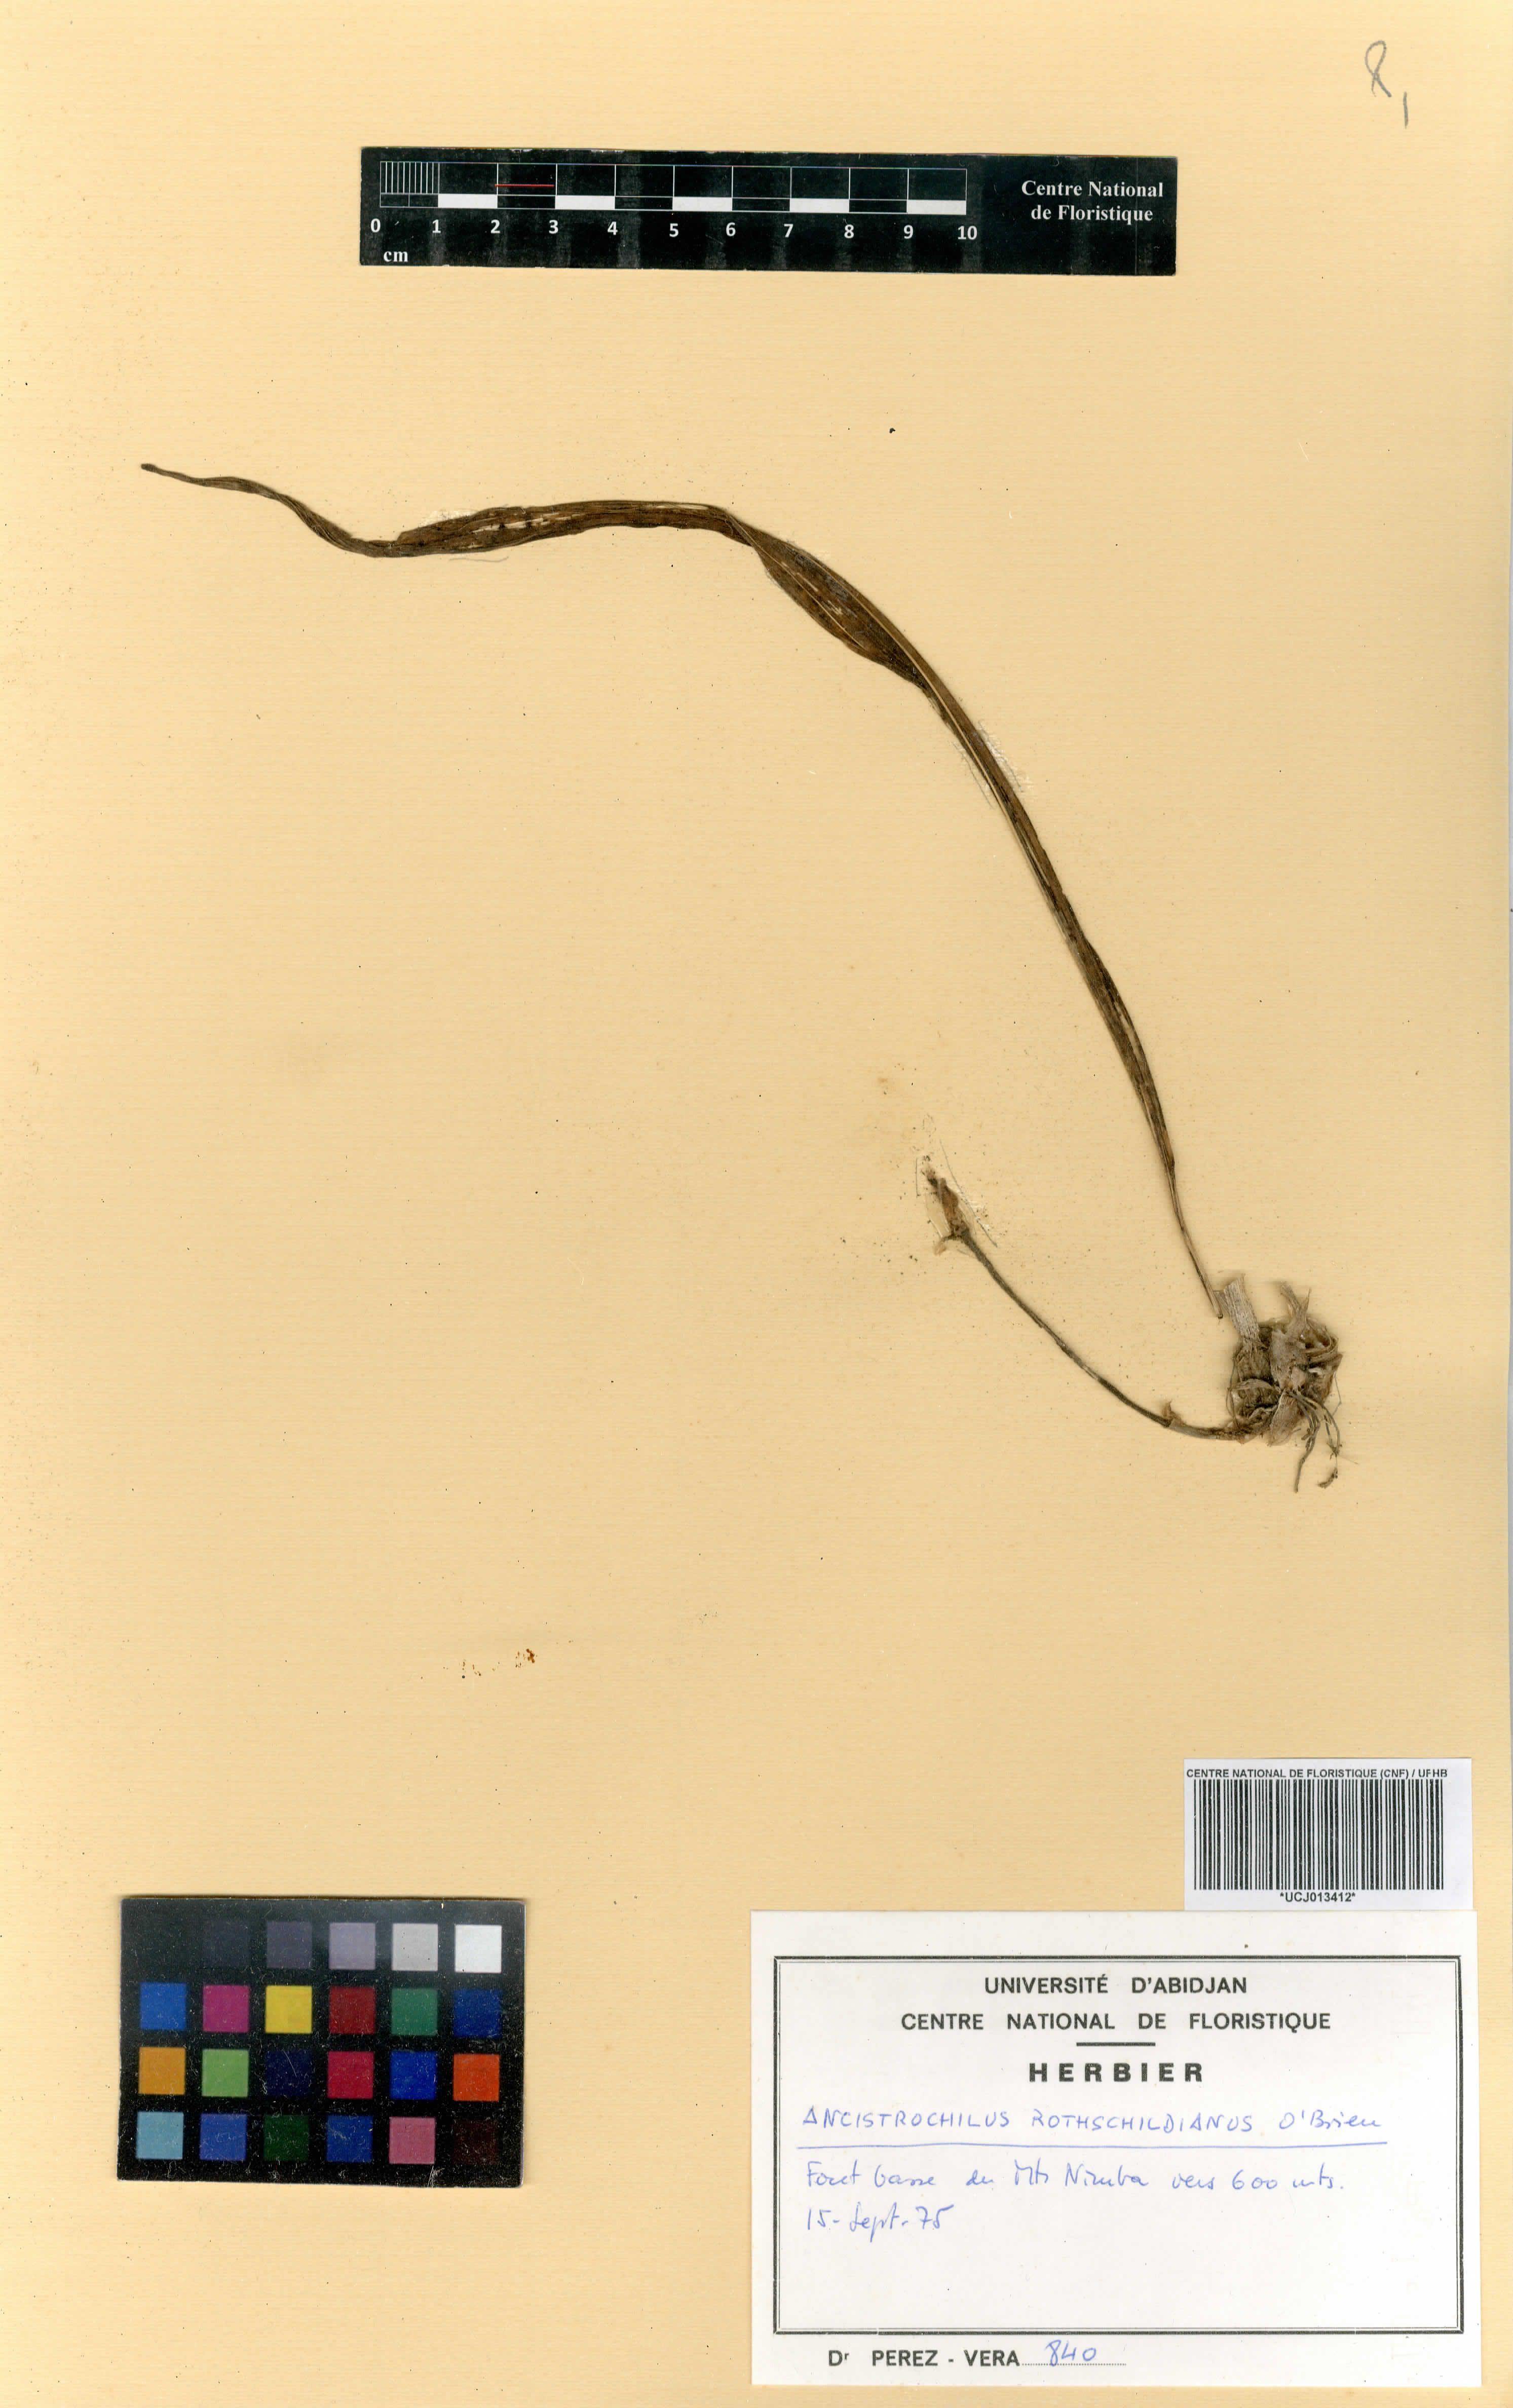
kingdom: Plantae
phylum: Tracheophyta
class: Liliopsida
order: Asparagales
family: Orchidaceae
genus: Ancistrochilus
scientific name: Ancistrochilus rothschildianus
